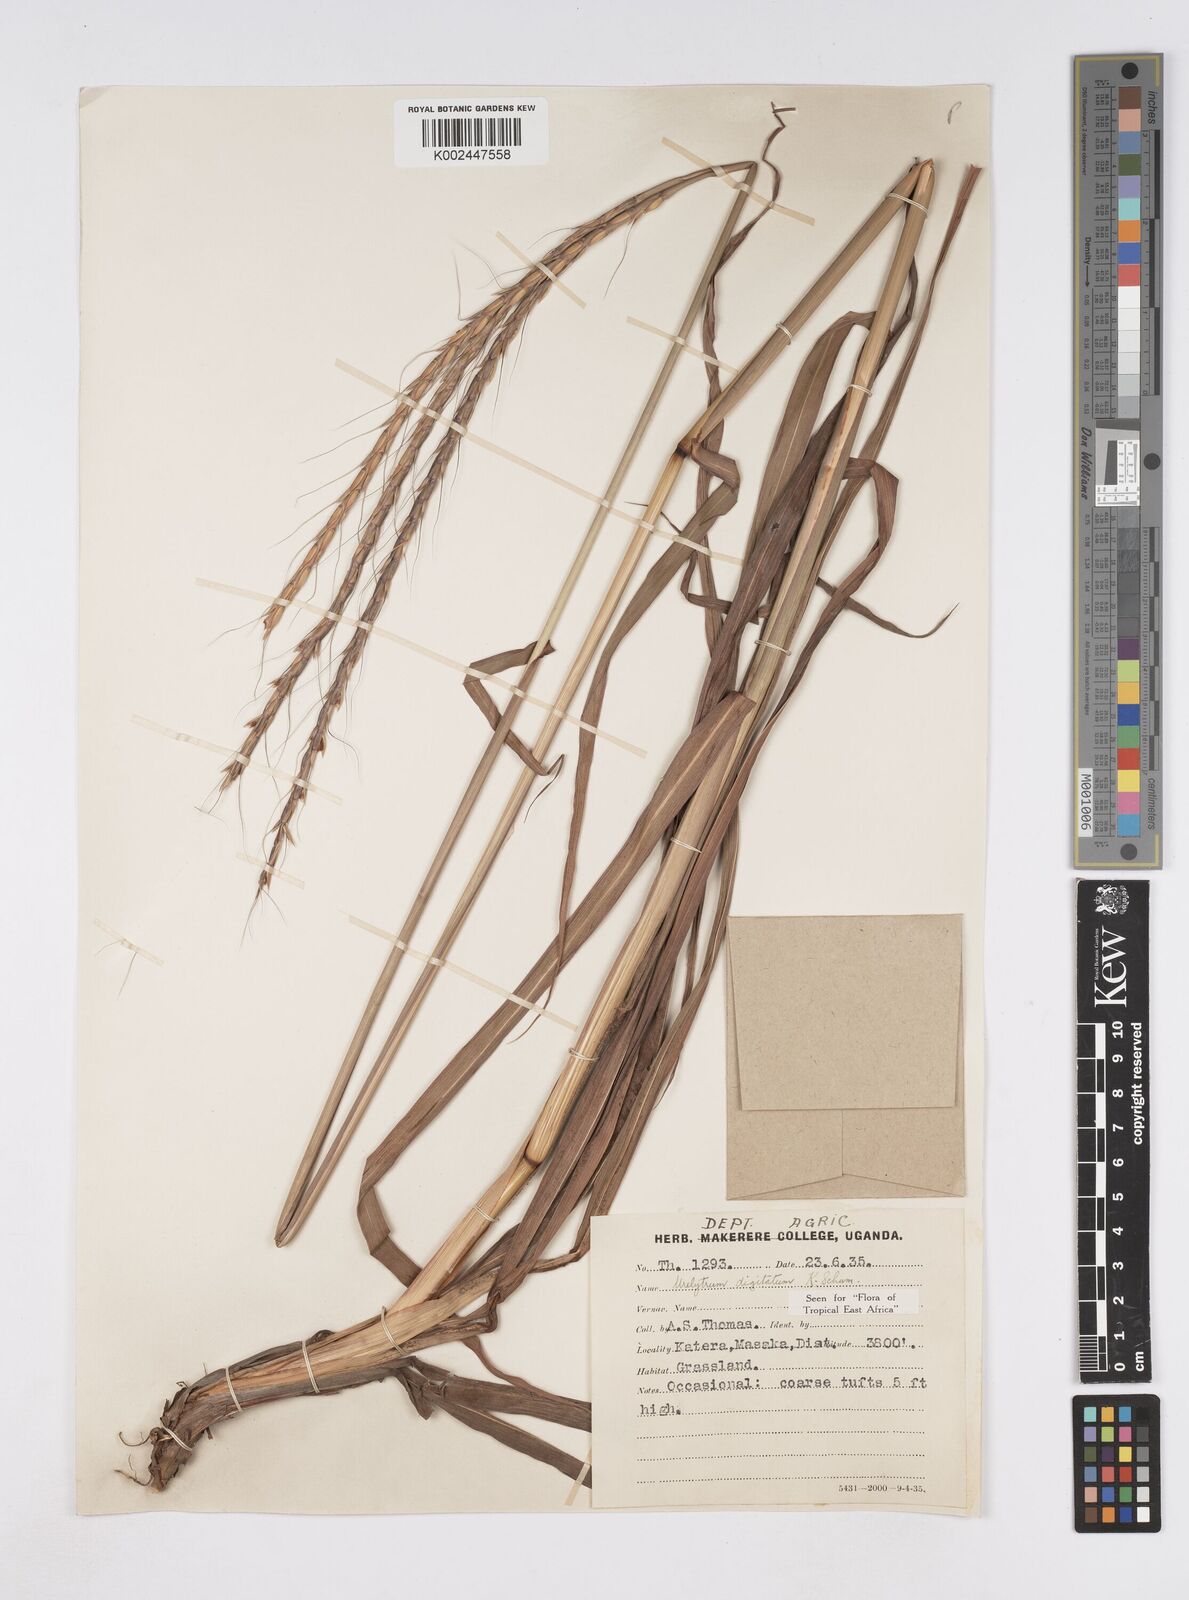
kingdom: Plantae
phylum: Tracheophyta
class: Liliopsida
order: Poales
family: Poaceae
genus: Urelytrum
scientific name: Urelytrum digitatum
